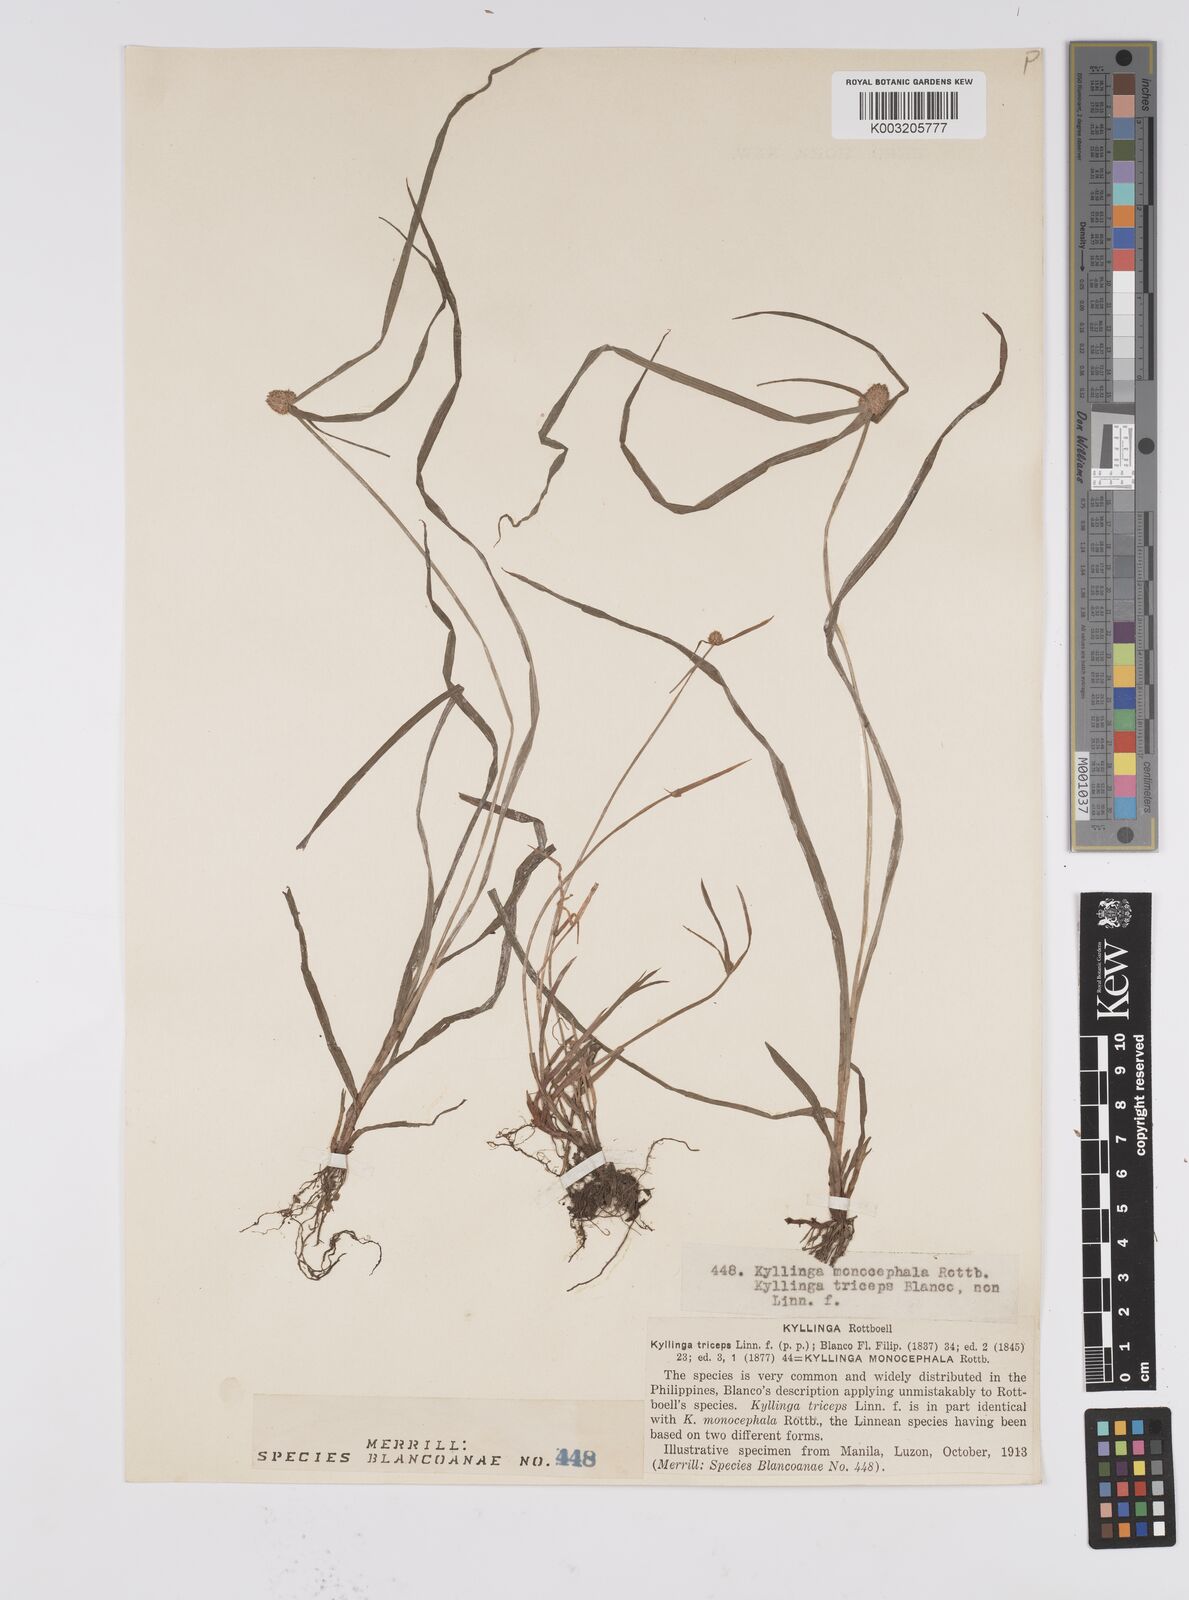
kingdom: Plantae
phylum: Tracheophyta
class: Liliopsida
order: Poales
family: Cyperaceae
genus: Cyperus
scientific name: Cyperus nemoralis
